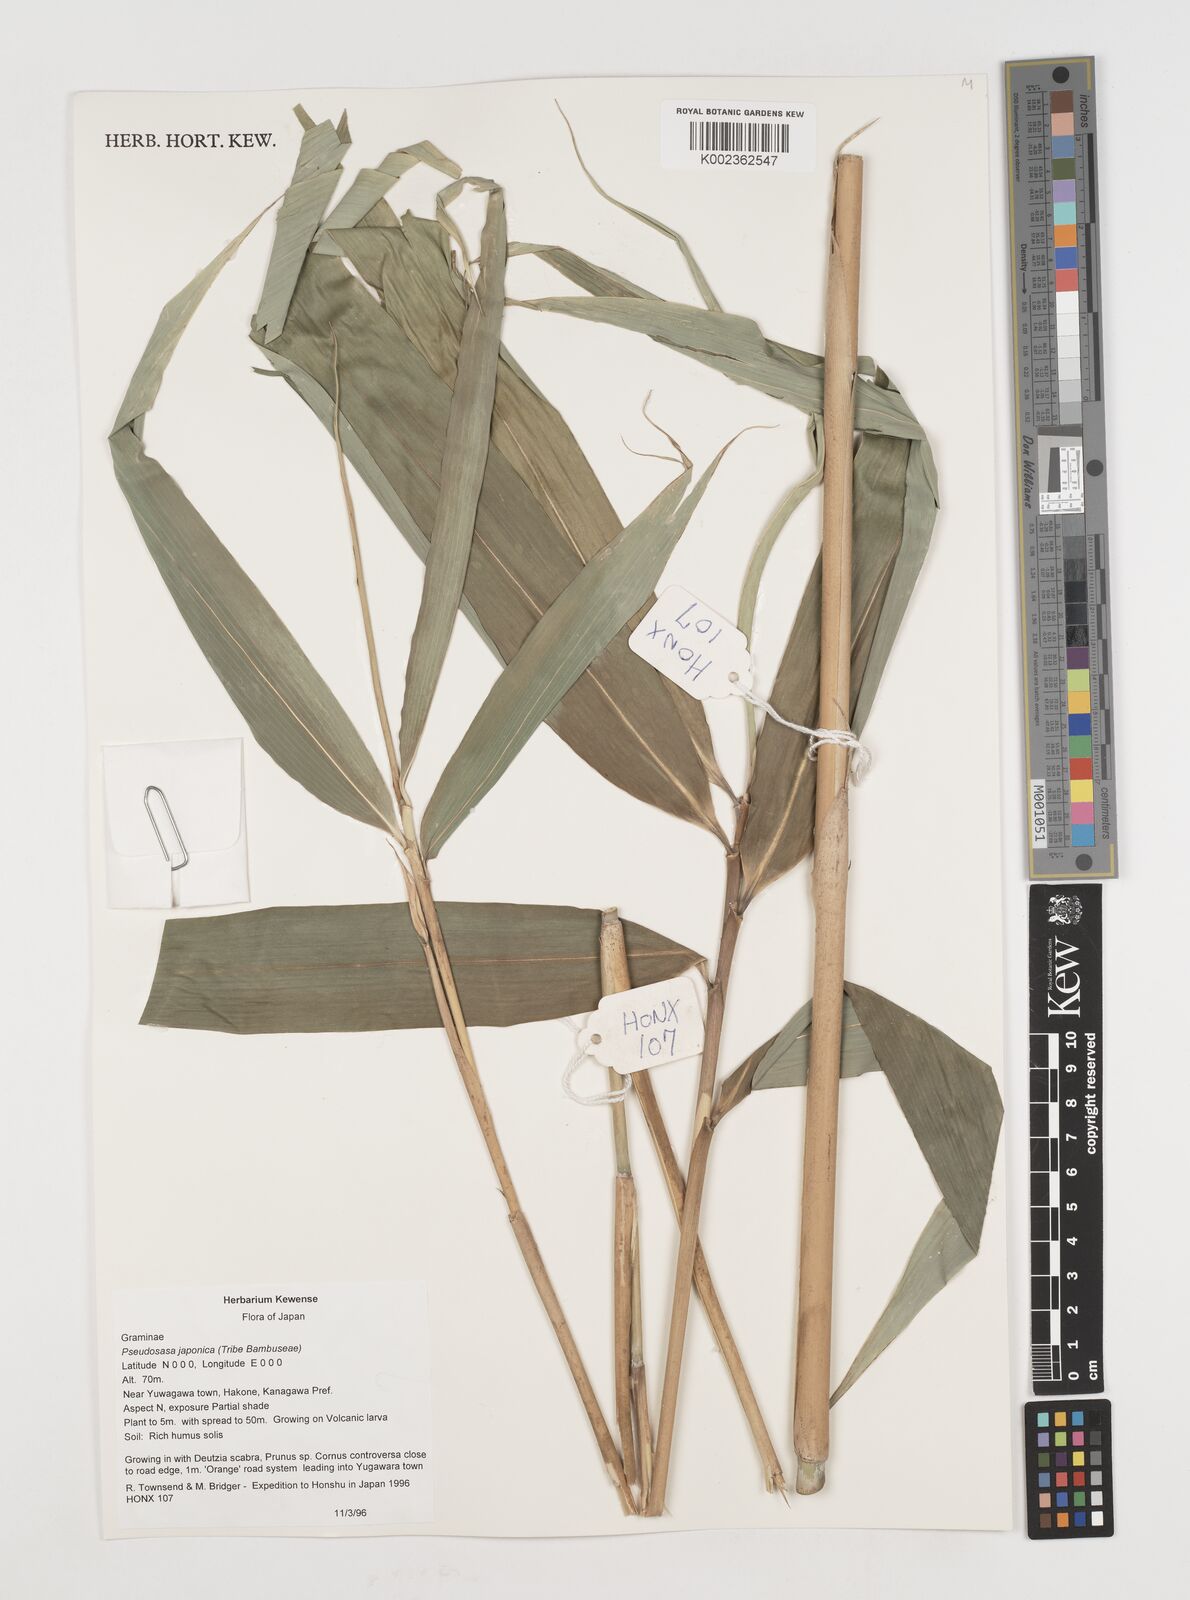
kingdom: Plantae
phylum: Tracheophyta
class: Liliopsida
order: Poales
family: Poaceae
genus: Pseudosasa
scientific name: Pseudosasa japonica
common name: Arrow bamboo
